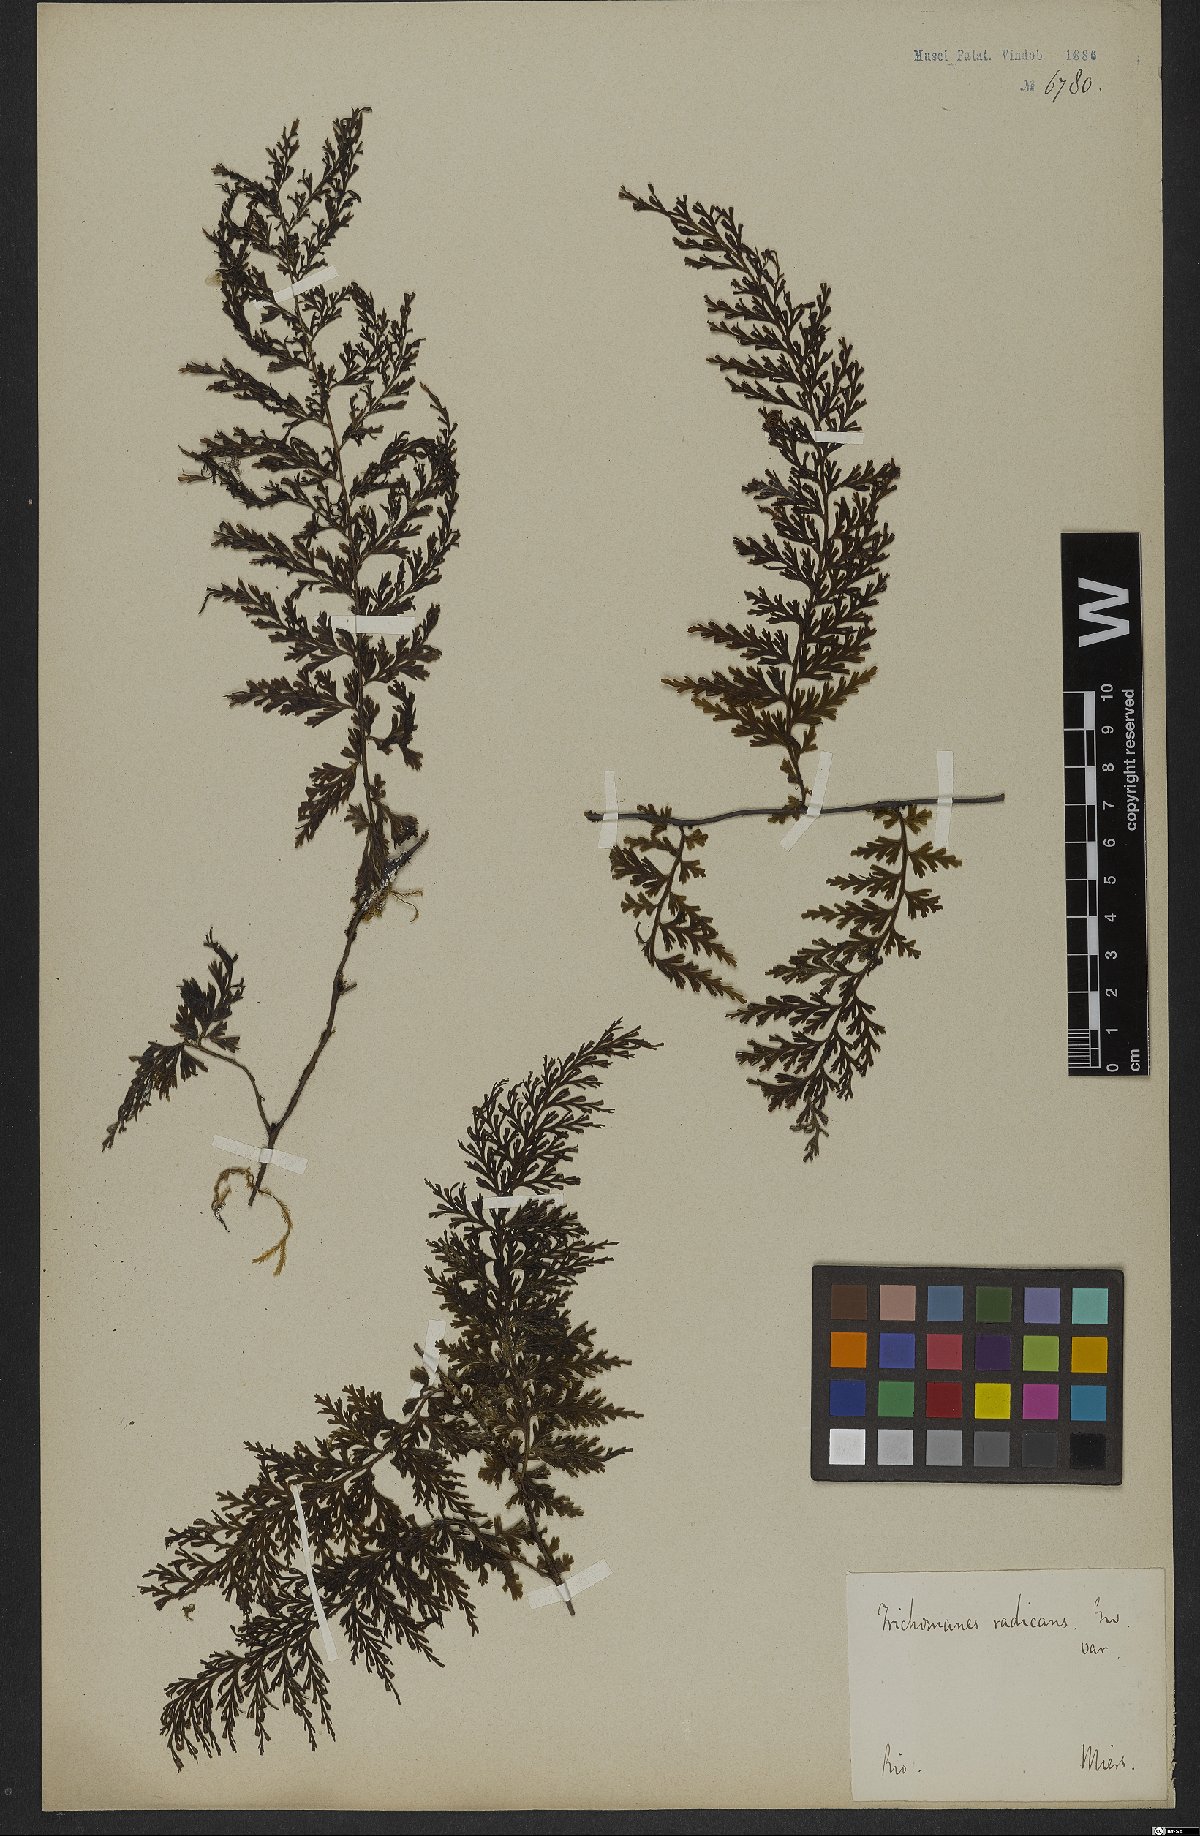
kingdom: Plantae
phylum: Tracheophyta
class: Polypodiopsida
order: Hymenophyllales
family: Hymenophyllaceae
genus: Vandenboschia
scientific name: Vandenboschia radicans
